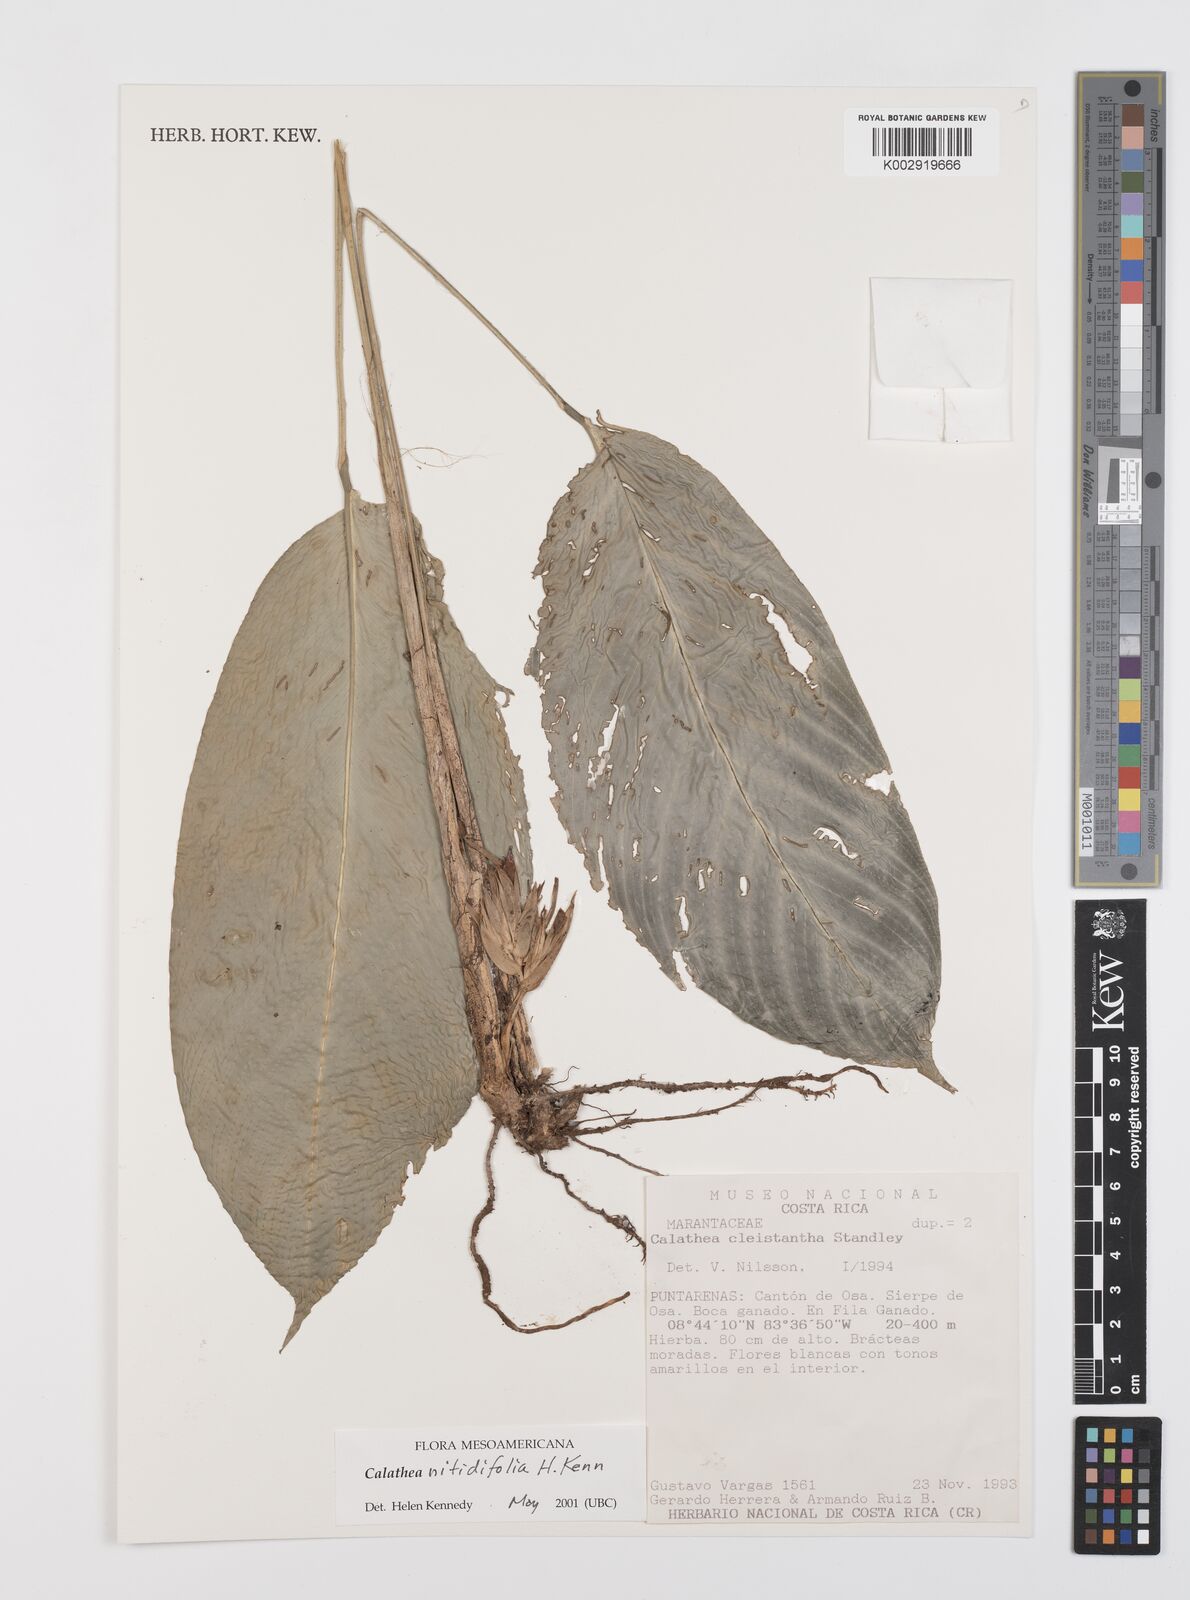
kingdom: Plantae
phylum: Tracheophyta
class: Liliopsida
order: Zingiberales
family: Marantaceae
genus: Goeppertia
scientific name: Goeppertia nitidifolia
